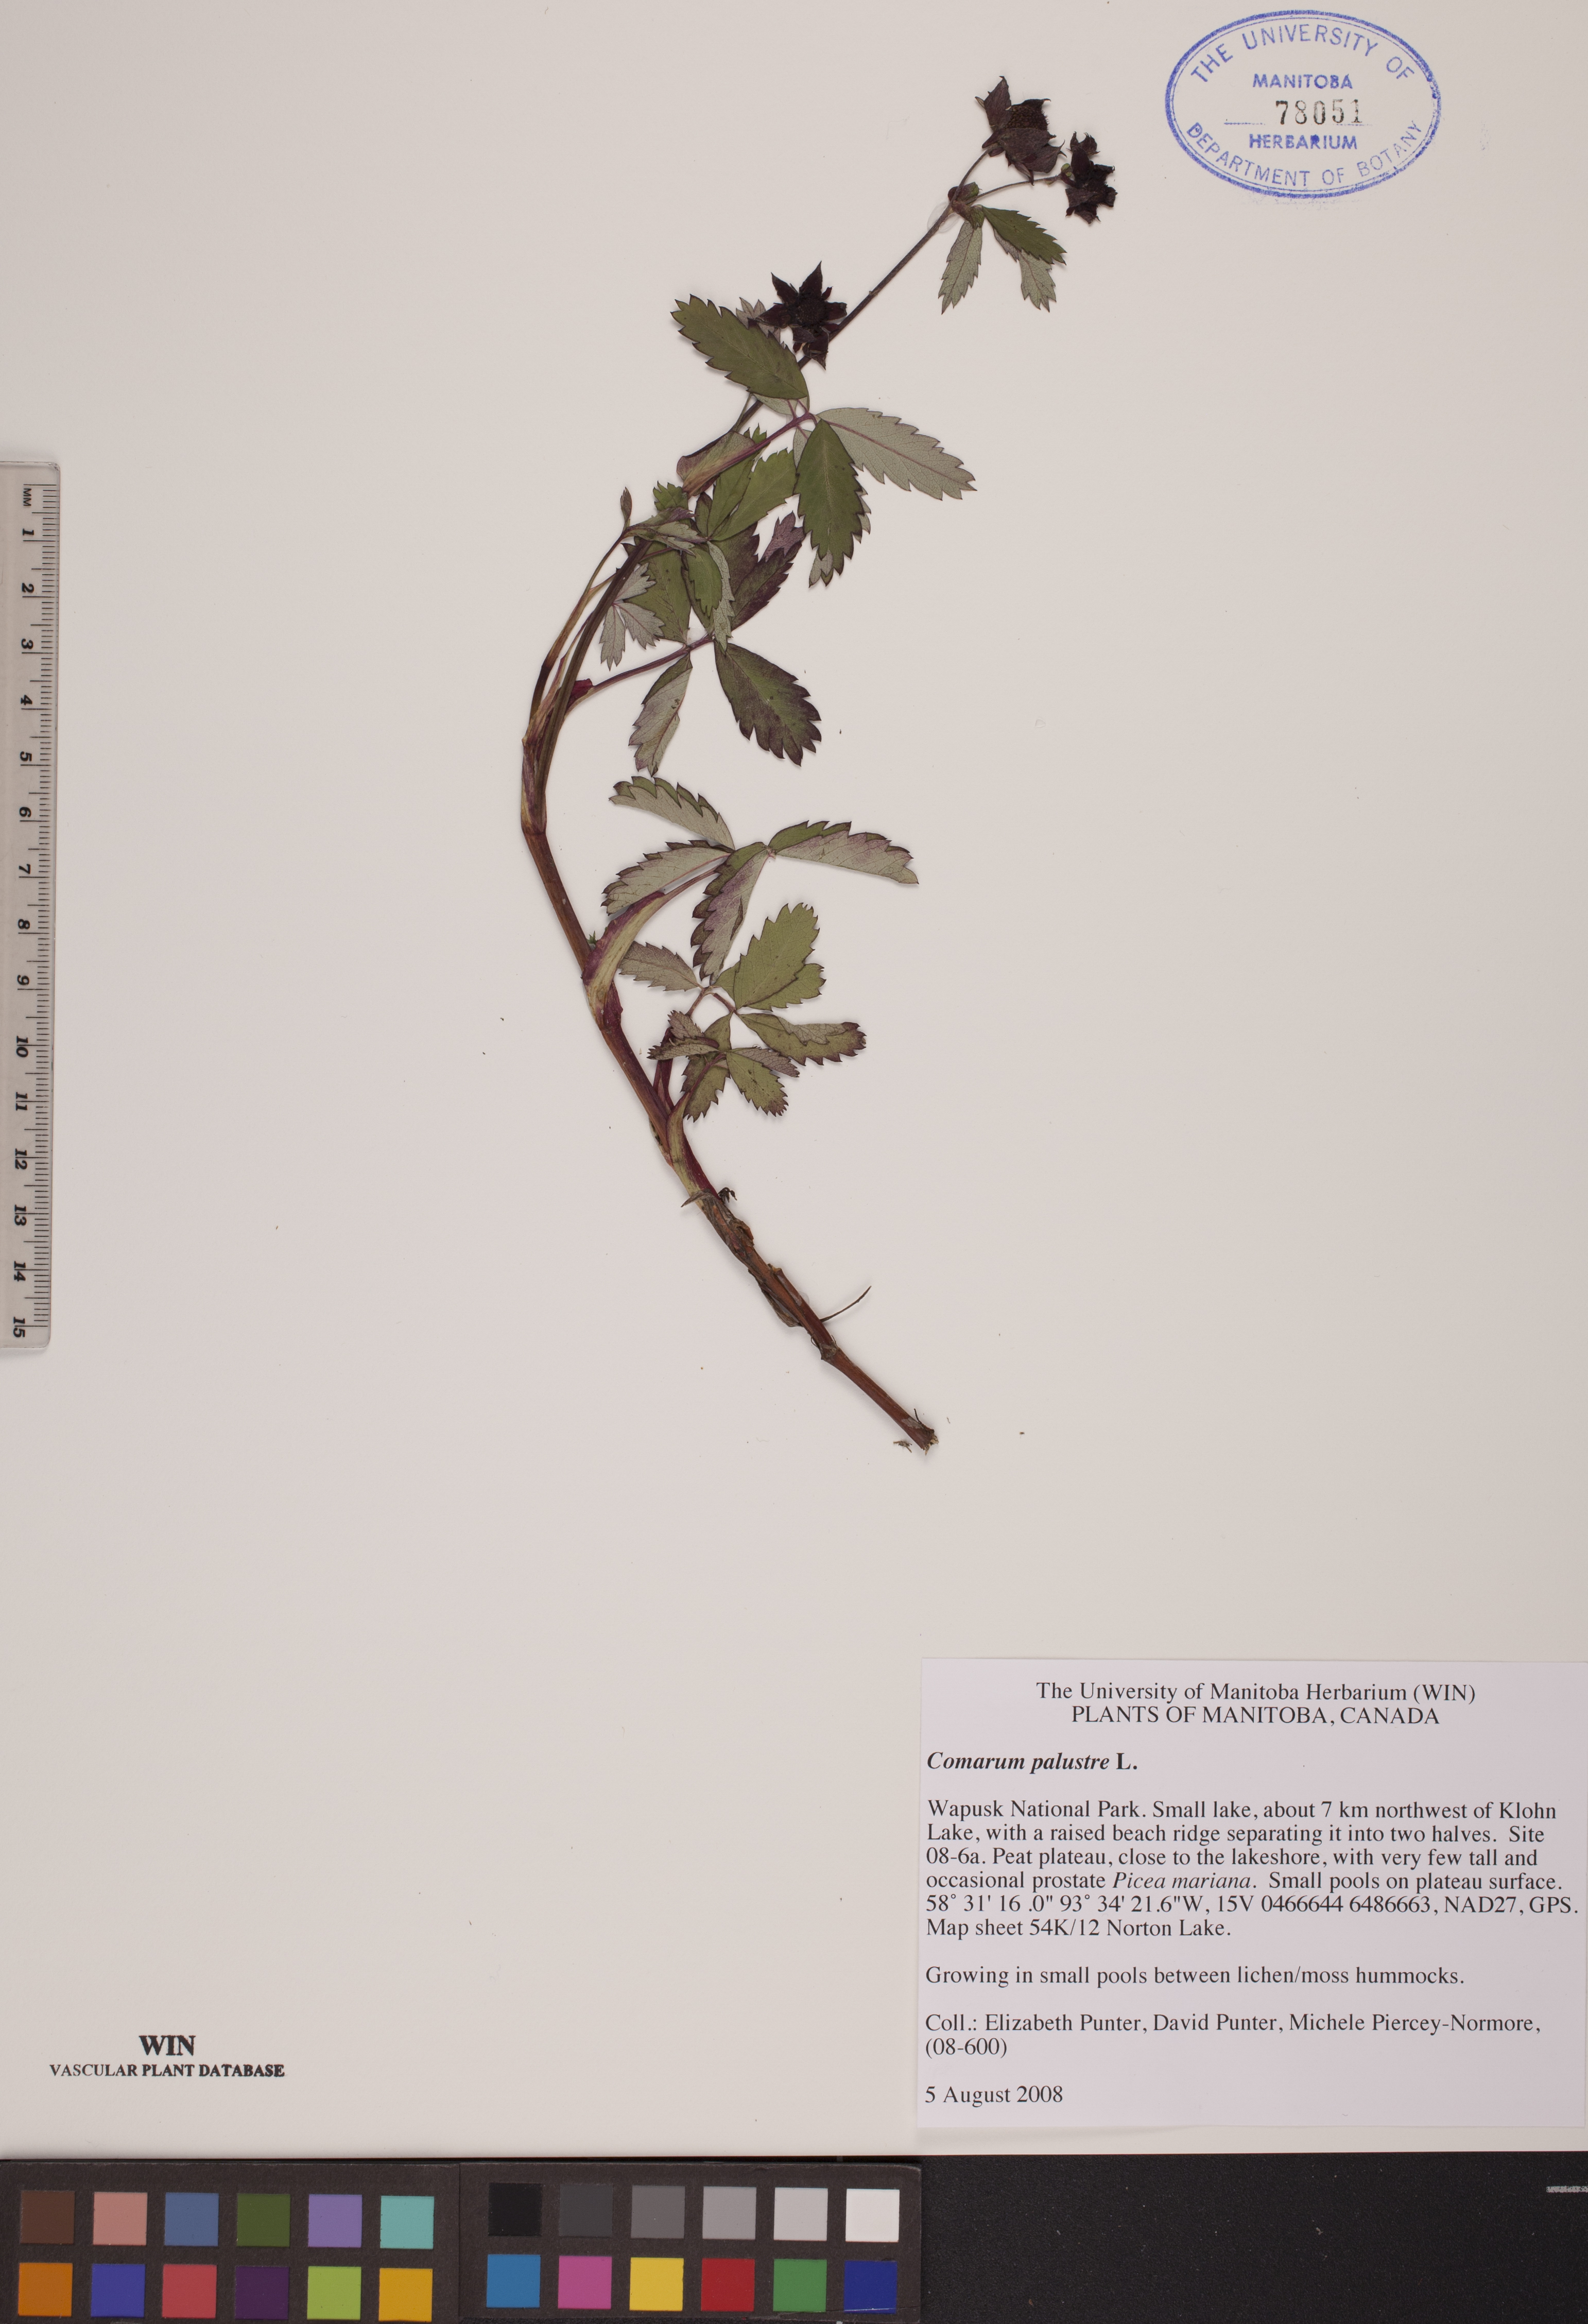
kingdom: Plantae
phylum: Tracheophyta
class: Magnoliopsida
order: Rosales
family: Rosaceae
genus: Comarum
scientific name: Comarum palustre
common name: Marsh cinquefoil
